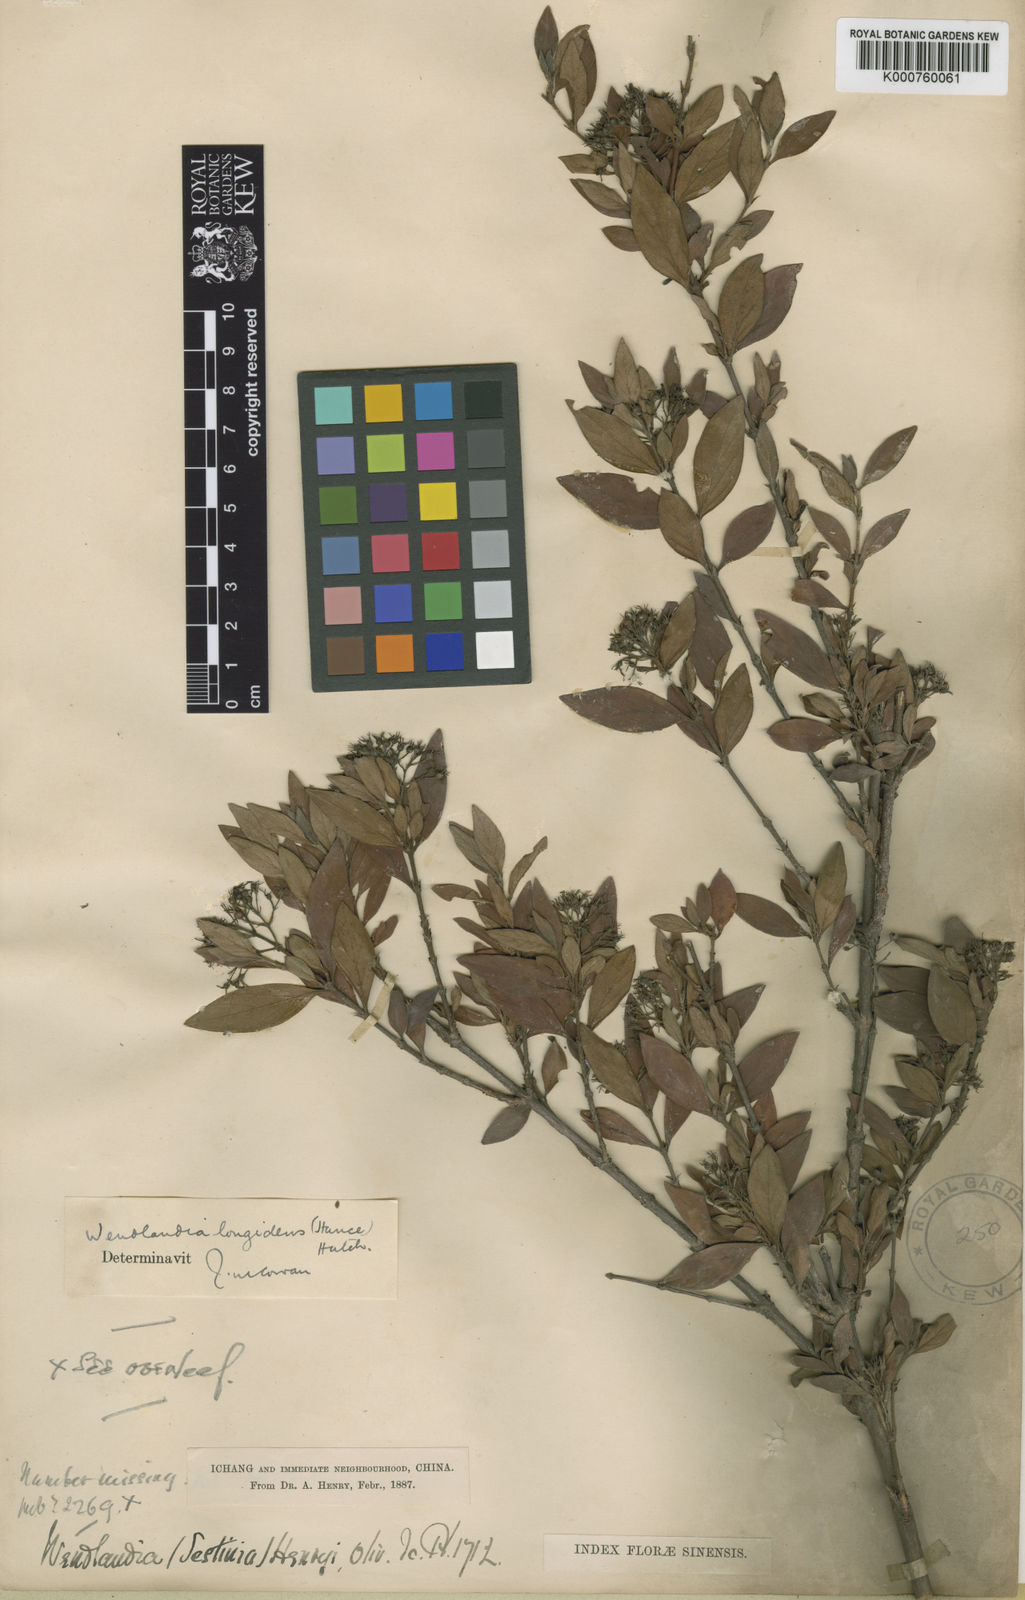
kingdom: Plantae
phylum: Tracheophyta
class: Magnoliopsida
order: Gentianales
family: Rubiaceae
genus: Wendlandia
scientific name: Wendlandia longidens
